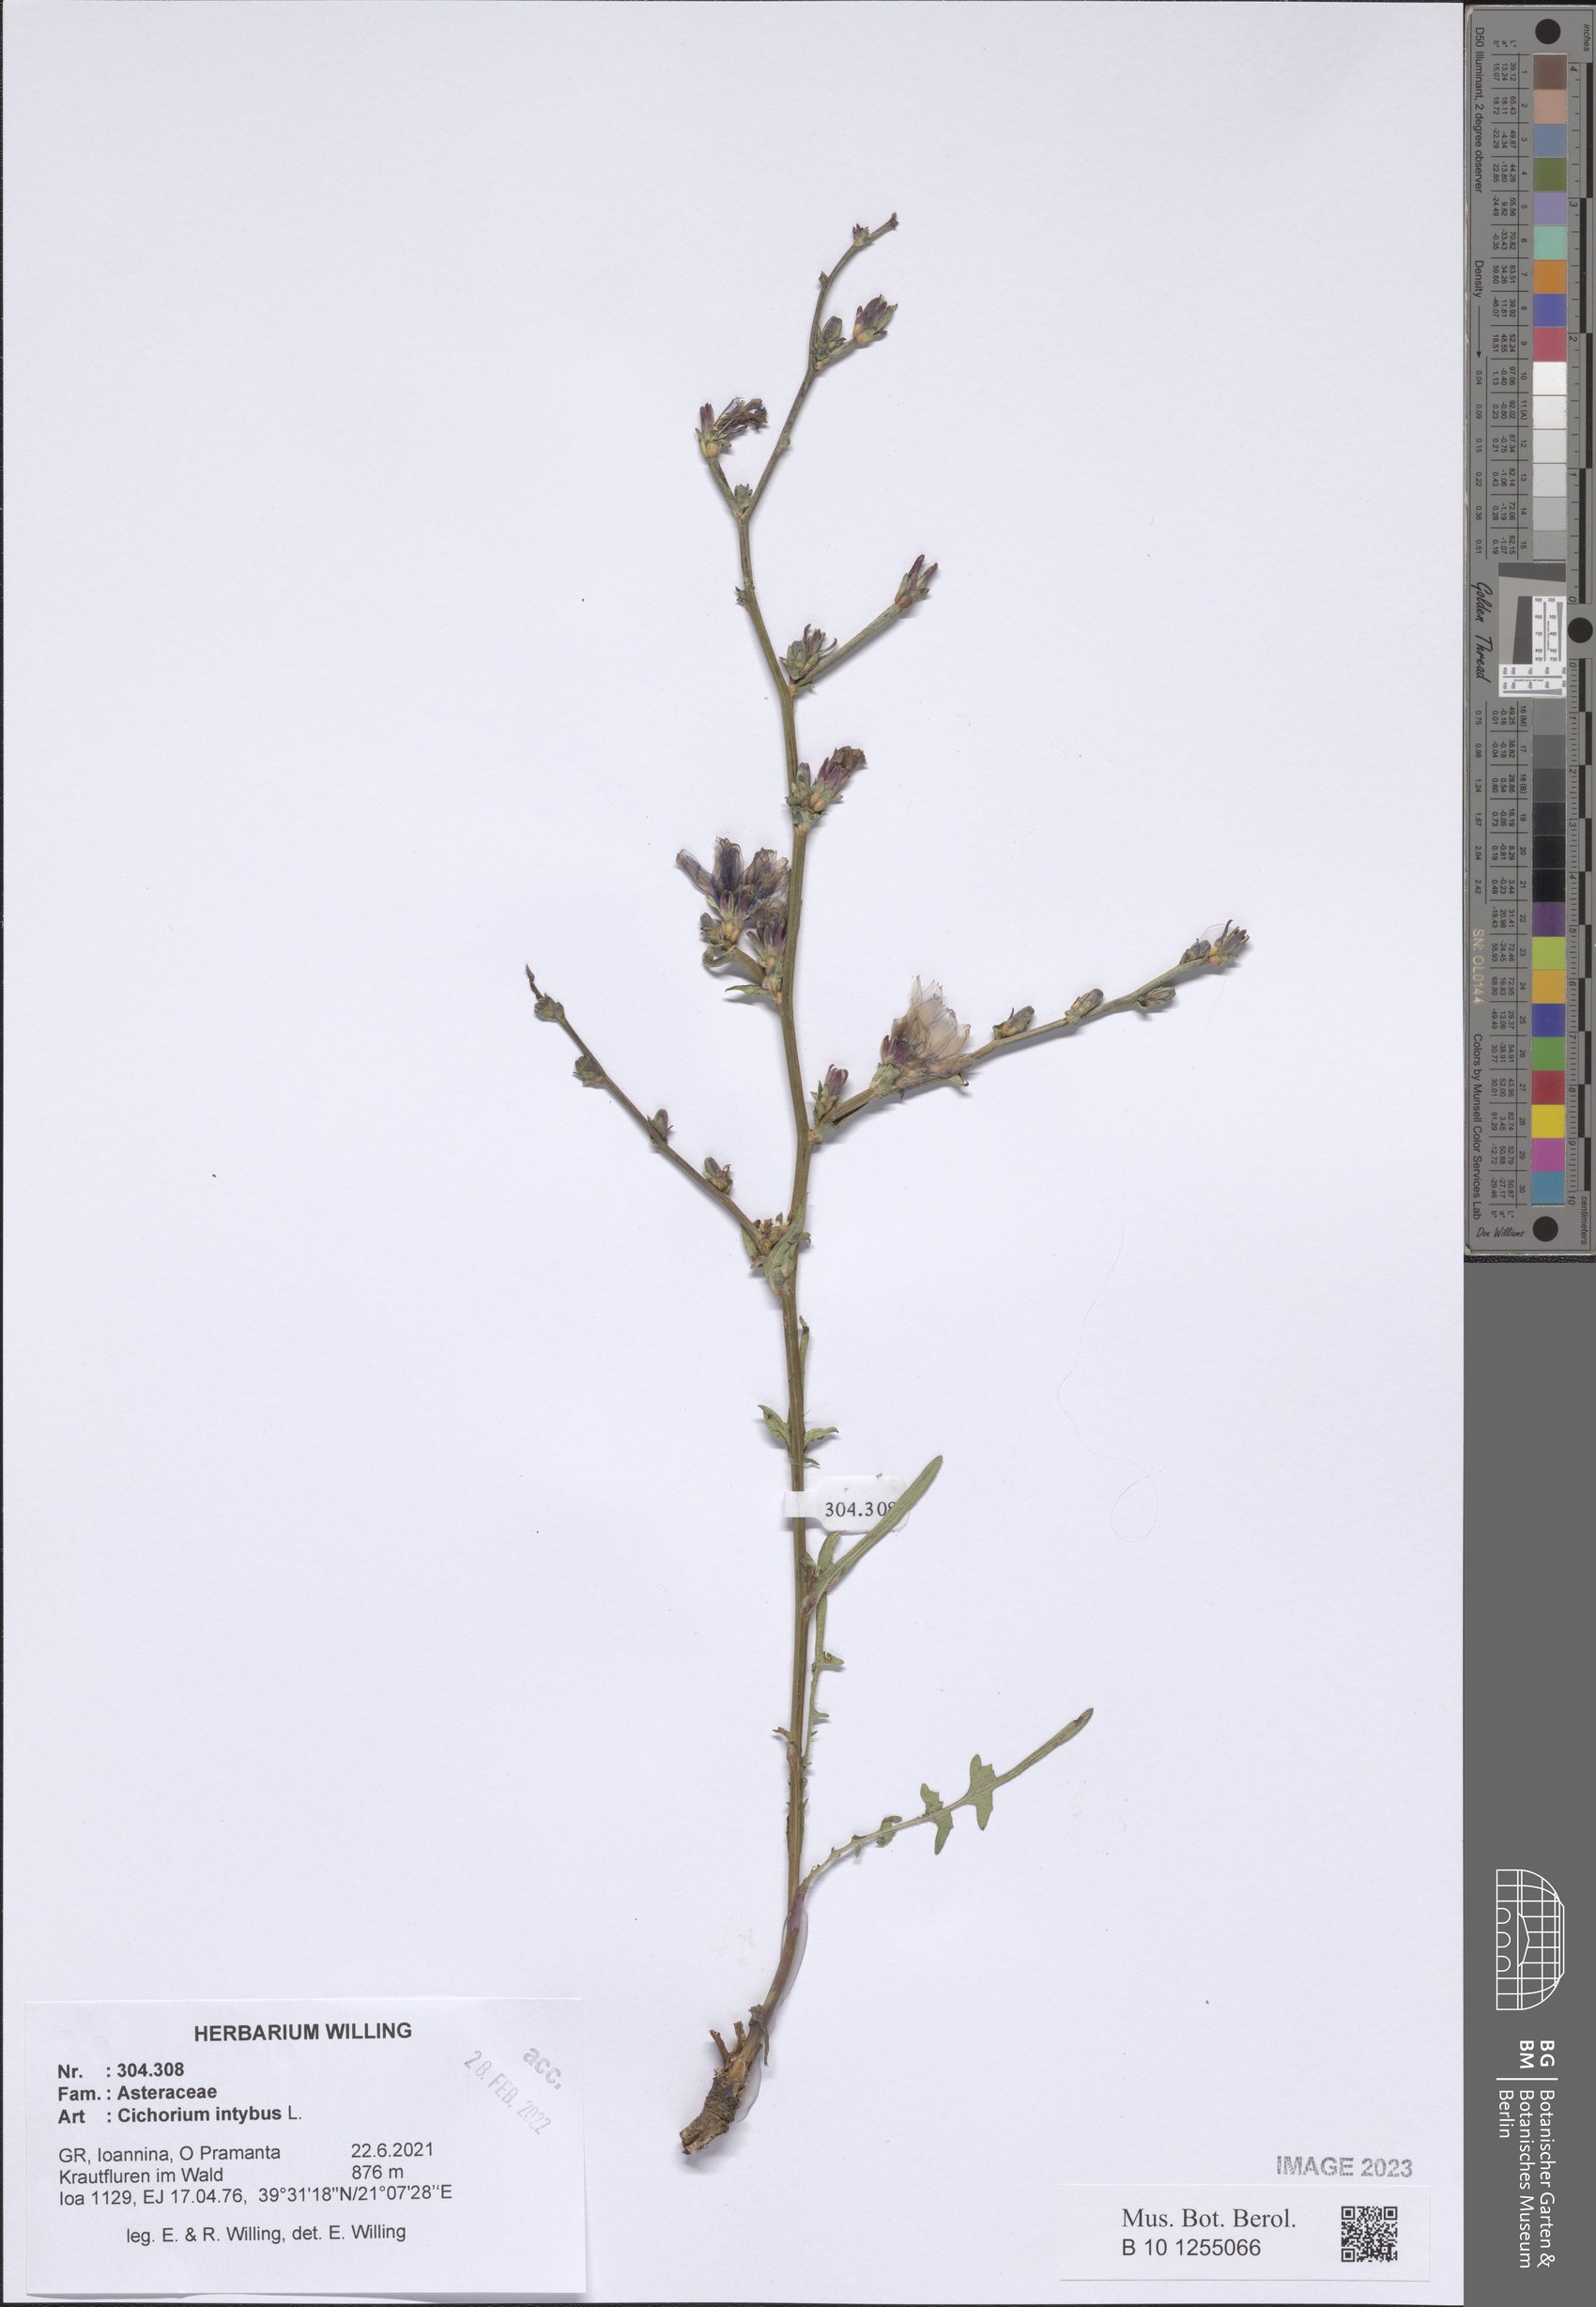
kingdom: Plantae
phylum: Tracheophyta
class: Magnoliopsida
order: Asterales
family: Asteraceae
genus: Cichorium
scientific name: Cichorium intybus
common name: Chicory
